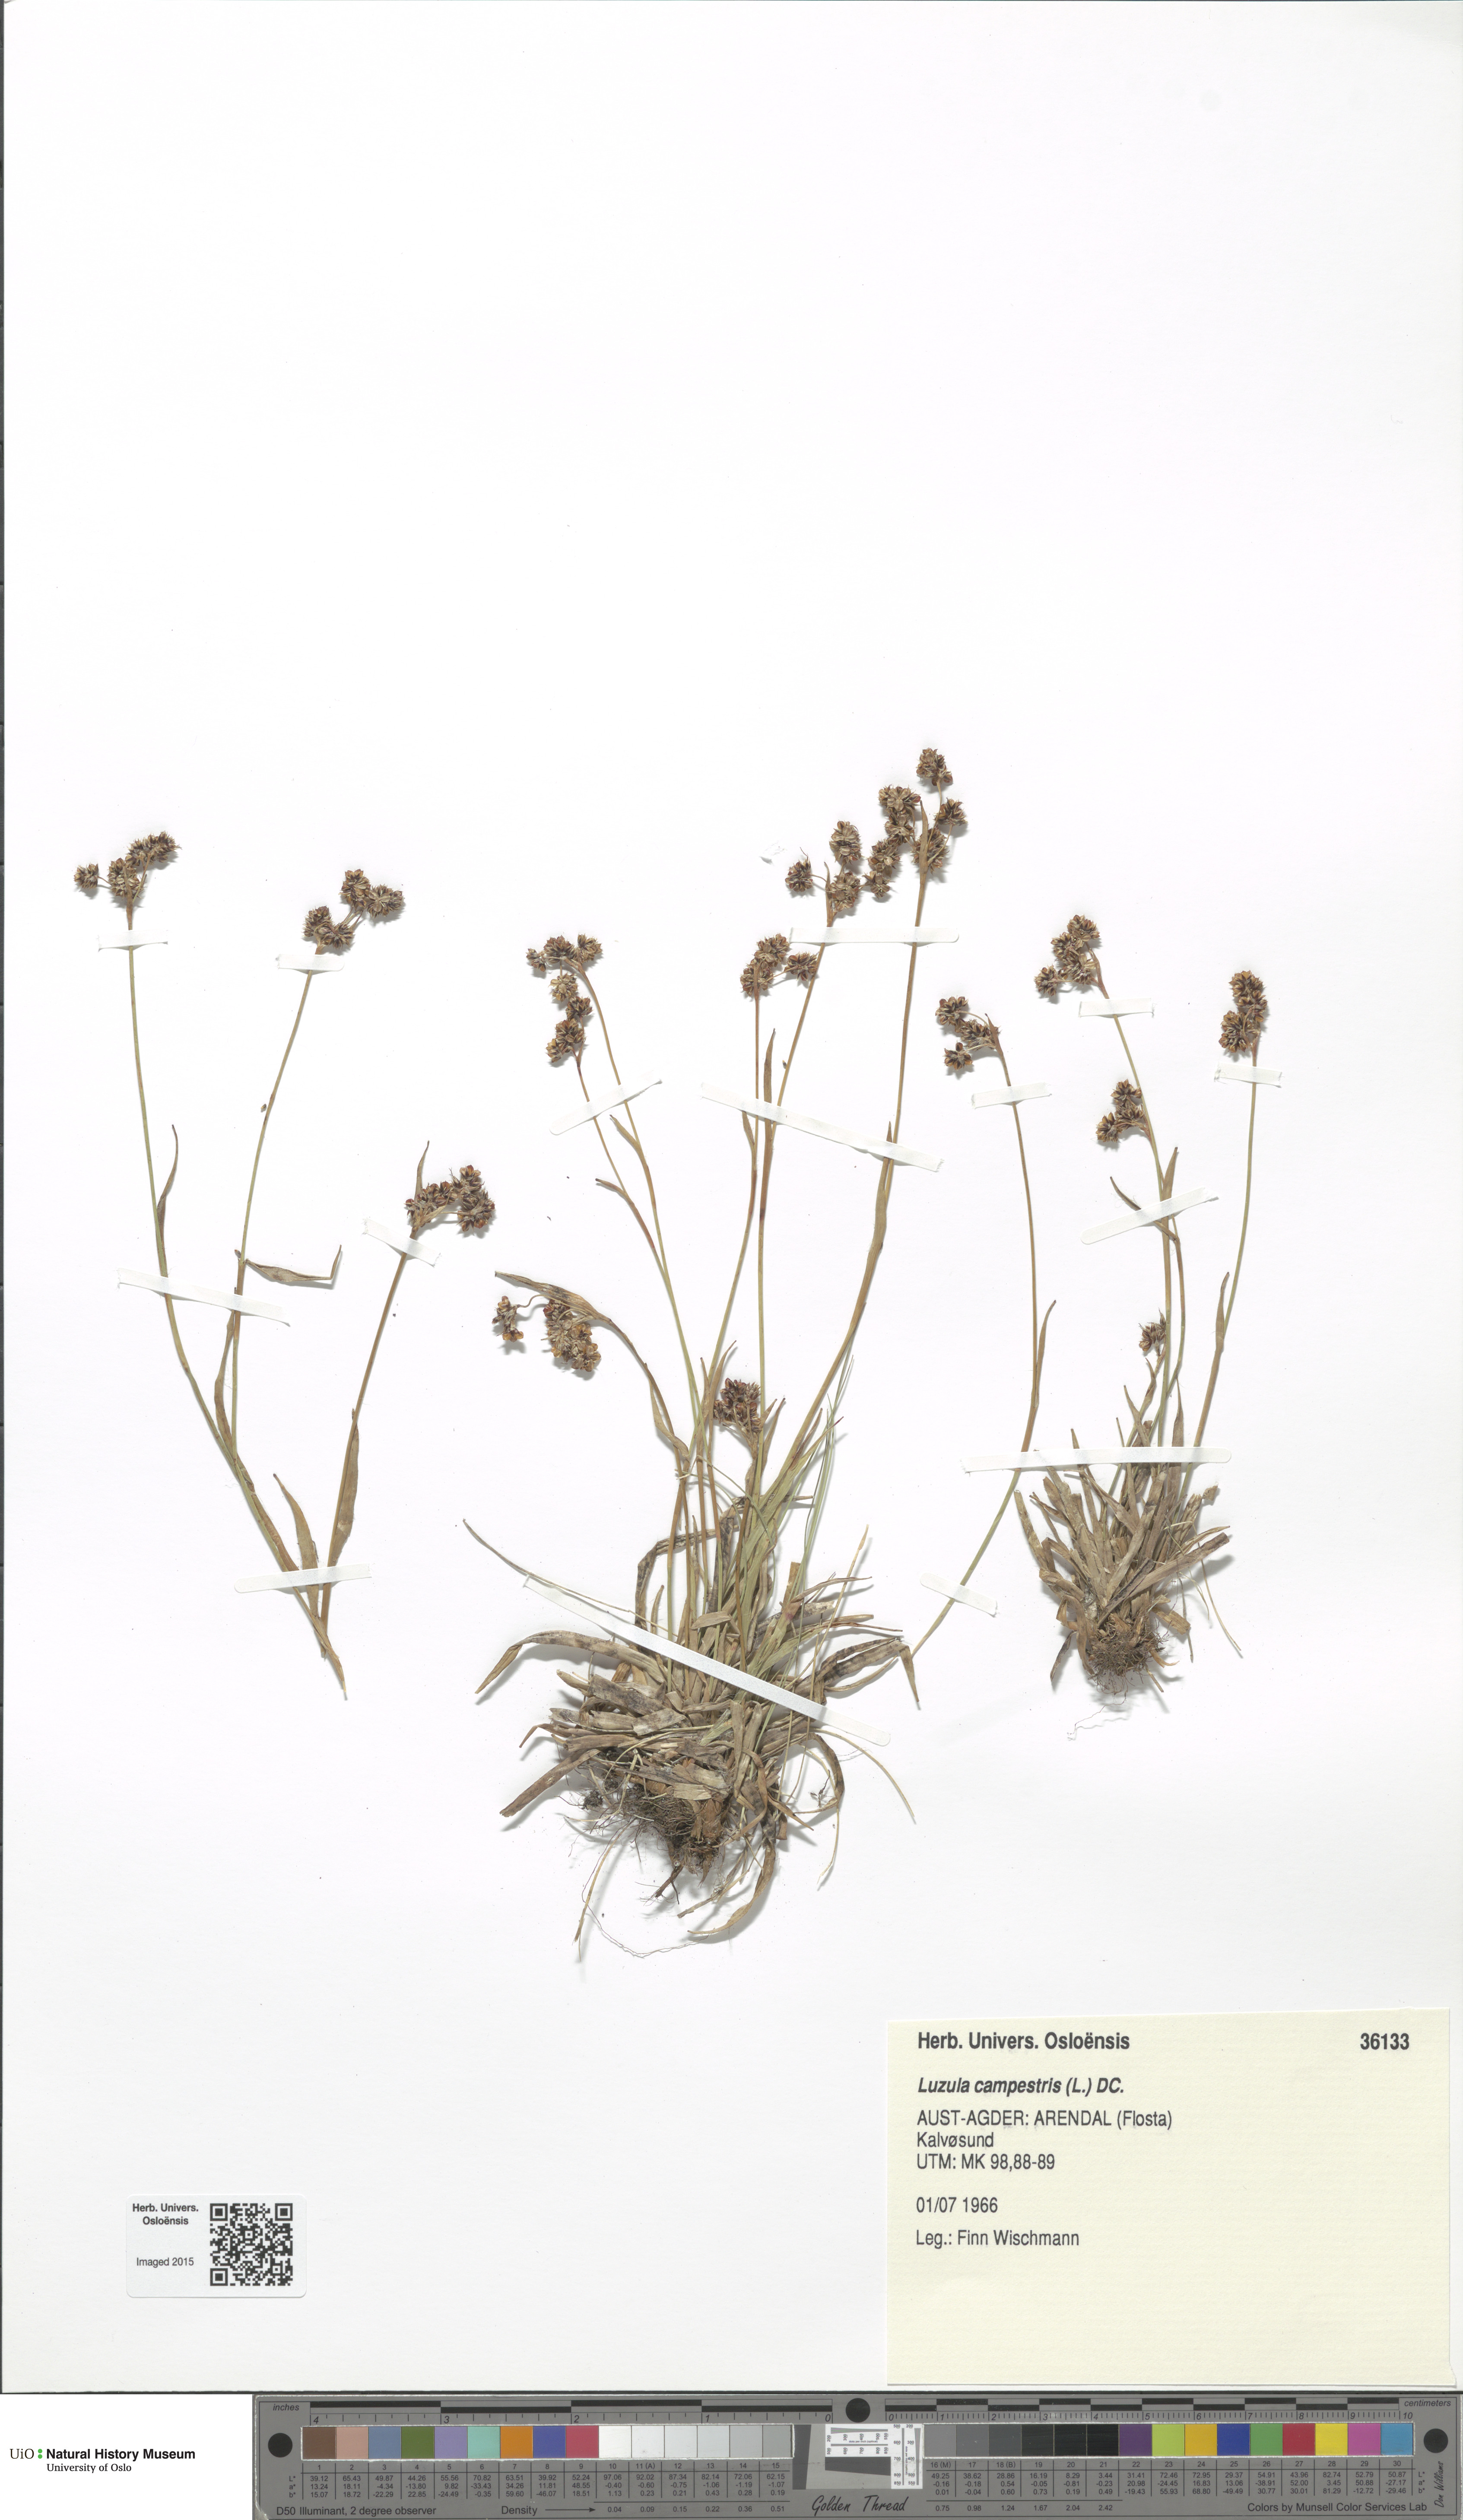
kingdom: Plantae
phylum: Tracheophyta
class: Liliopsida
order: Poales
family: Juncaceae
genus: Luzula
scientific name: Luzula campestris
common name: Field wood-rush
